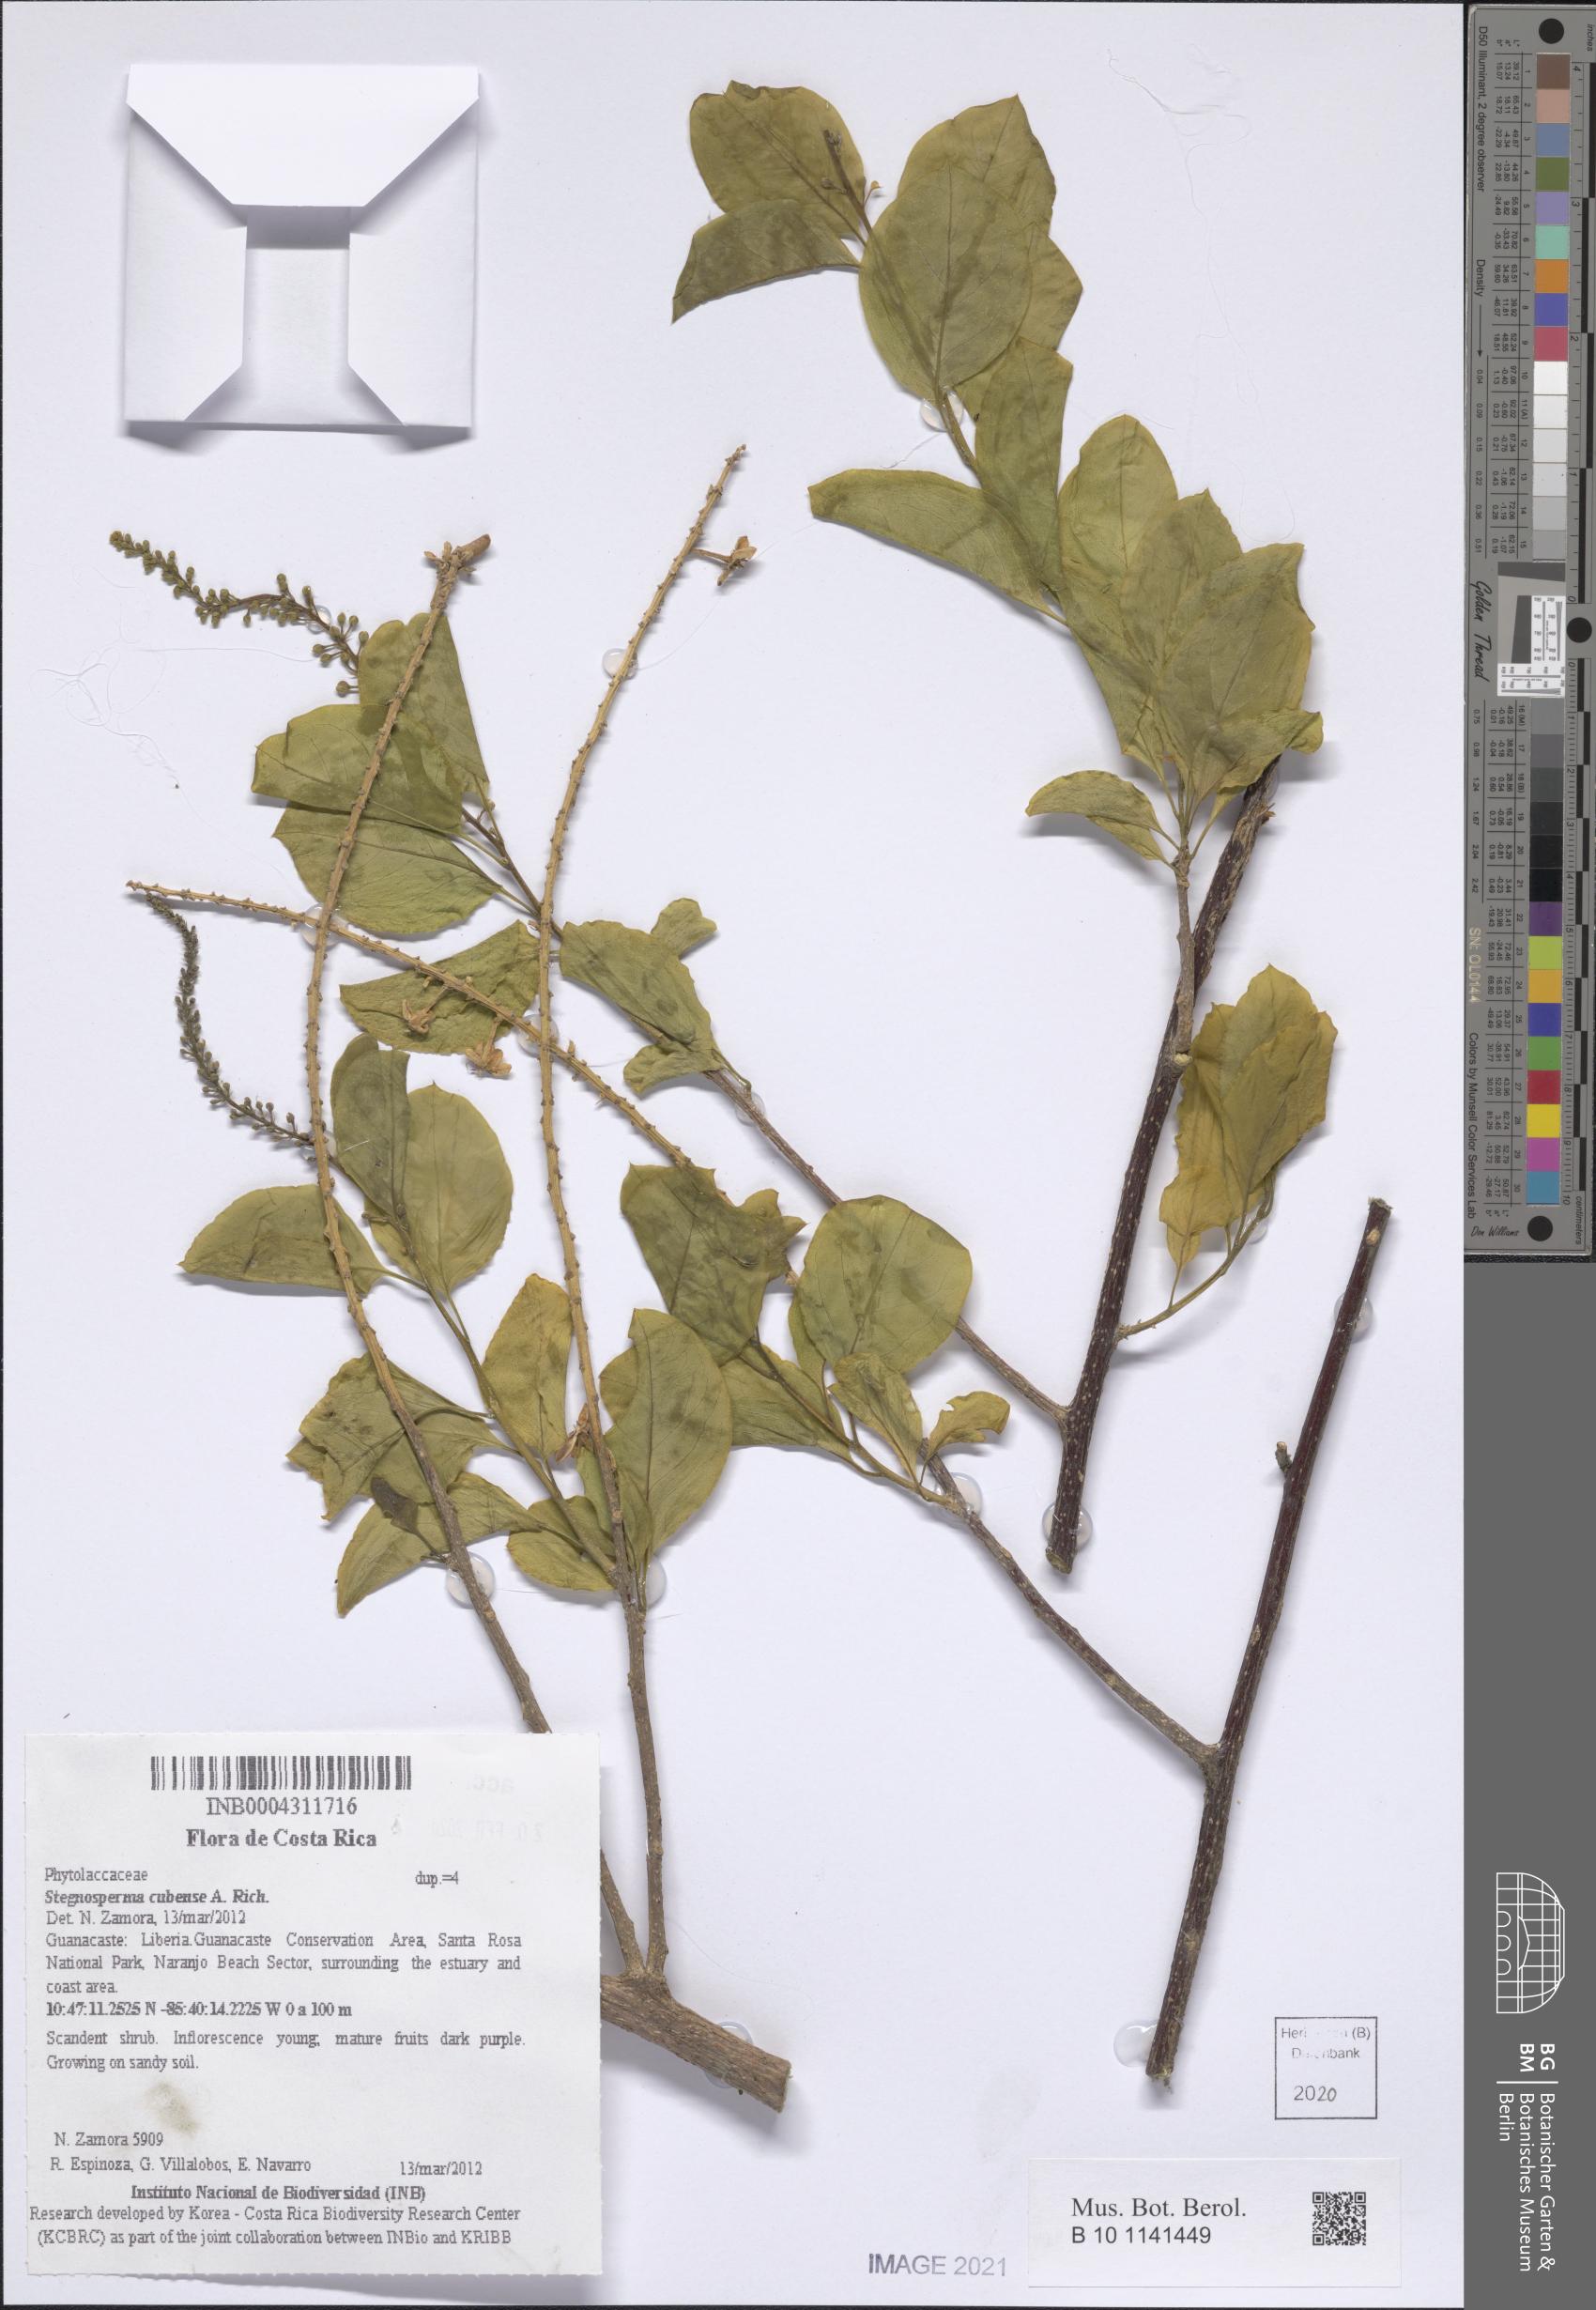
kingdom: Plantae
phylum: Tracheophyta
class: Magnoliopsida
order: Caryophyllales
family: Stegnospermataceae
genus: Stegnosperma
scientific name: Stegnosperma cubense
